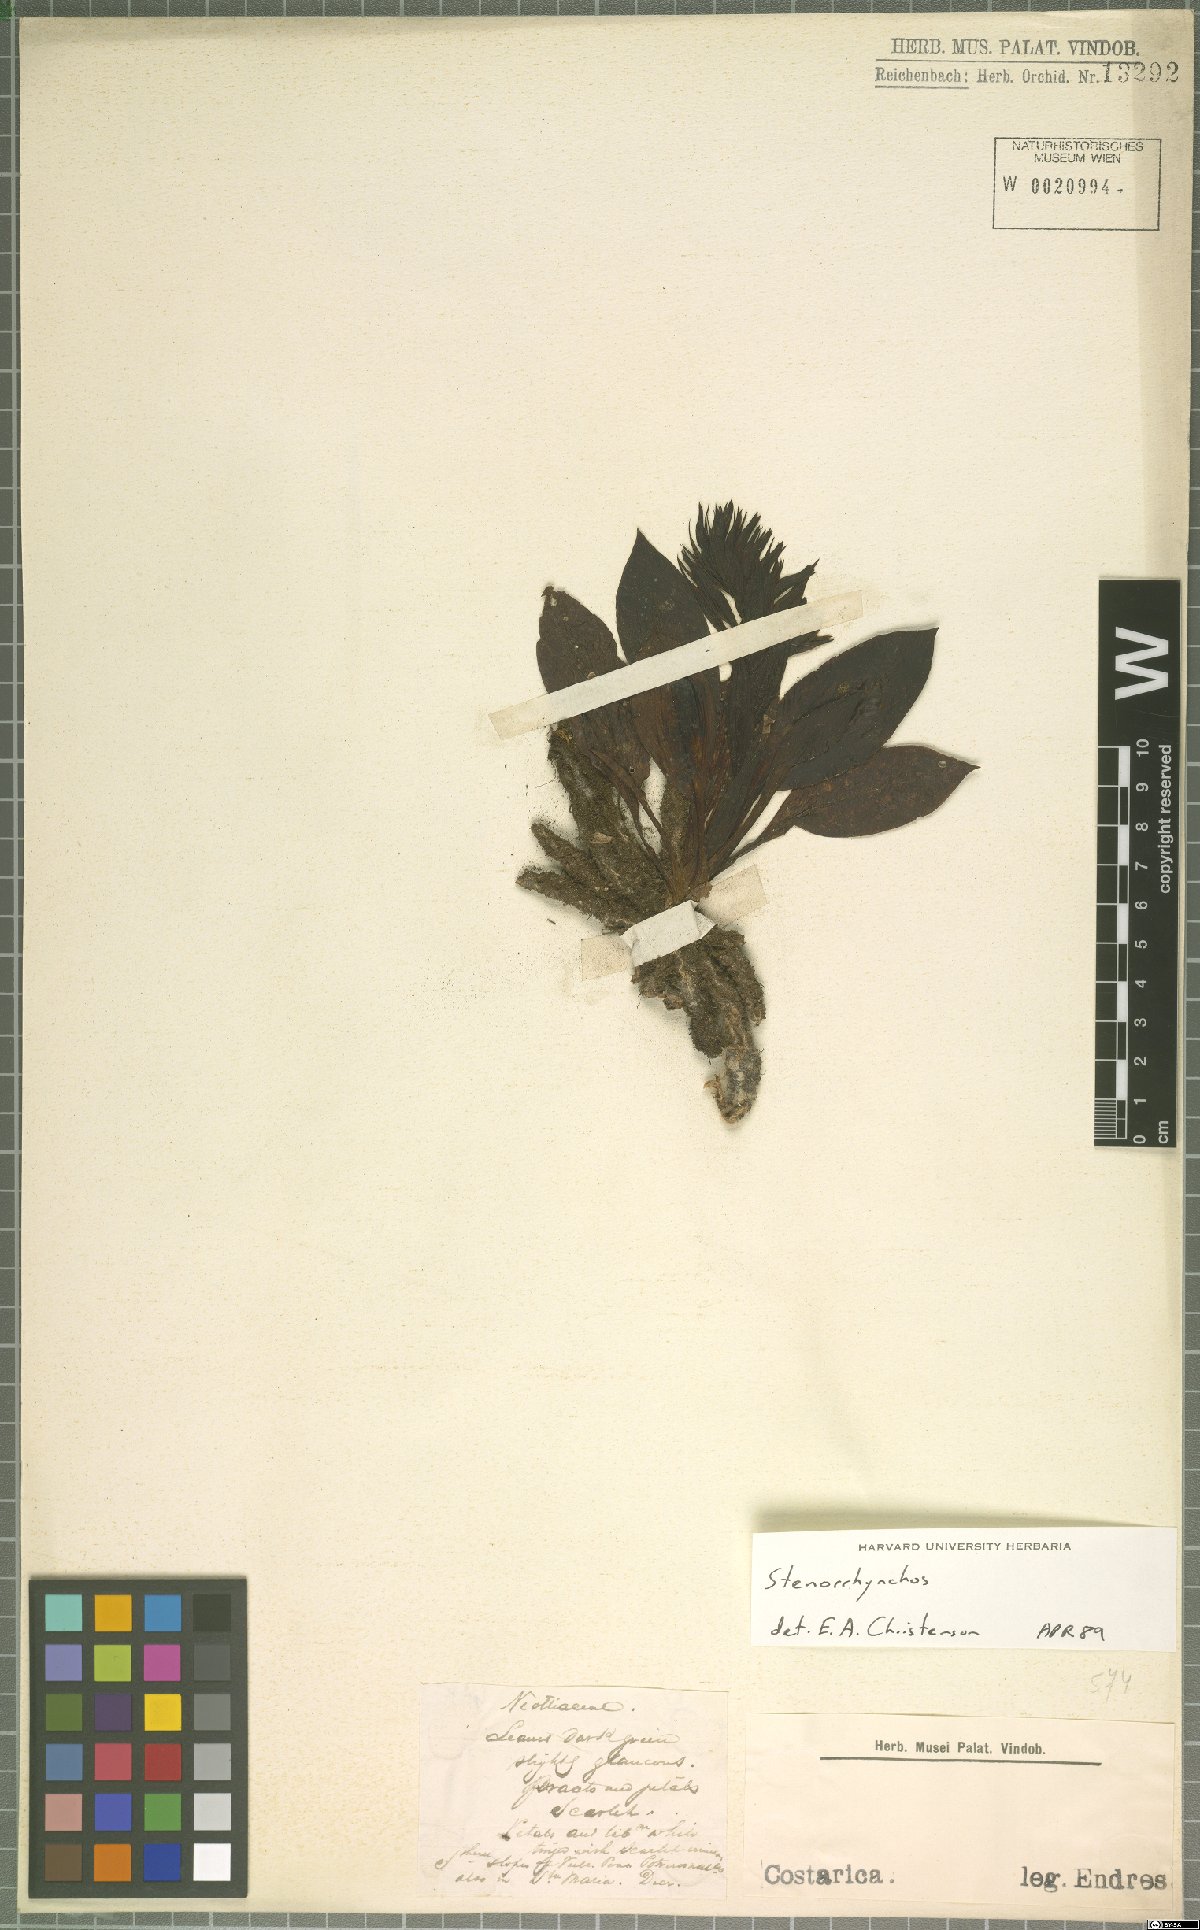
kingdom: Plantae
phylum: Tracheophyta
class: Liliopsida
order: Asparagales
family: Orchidaceae
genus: Stenorrhynchos
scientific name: Stenorrhynchos
